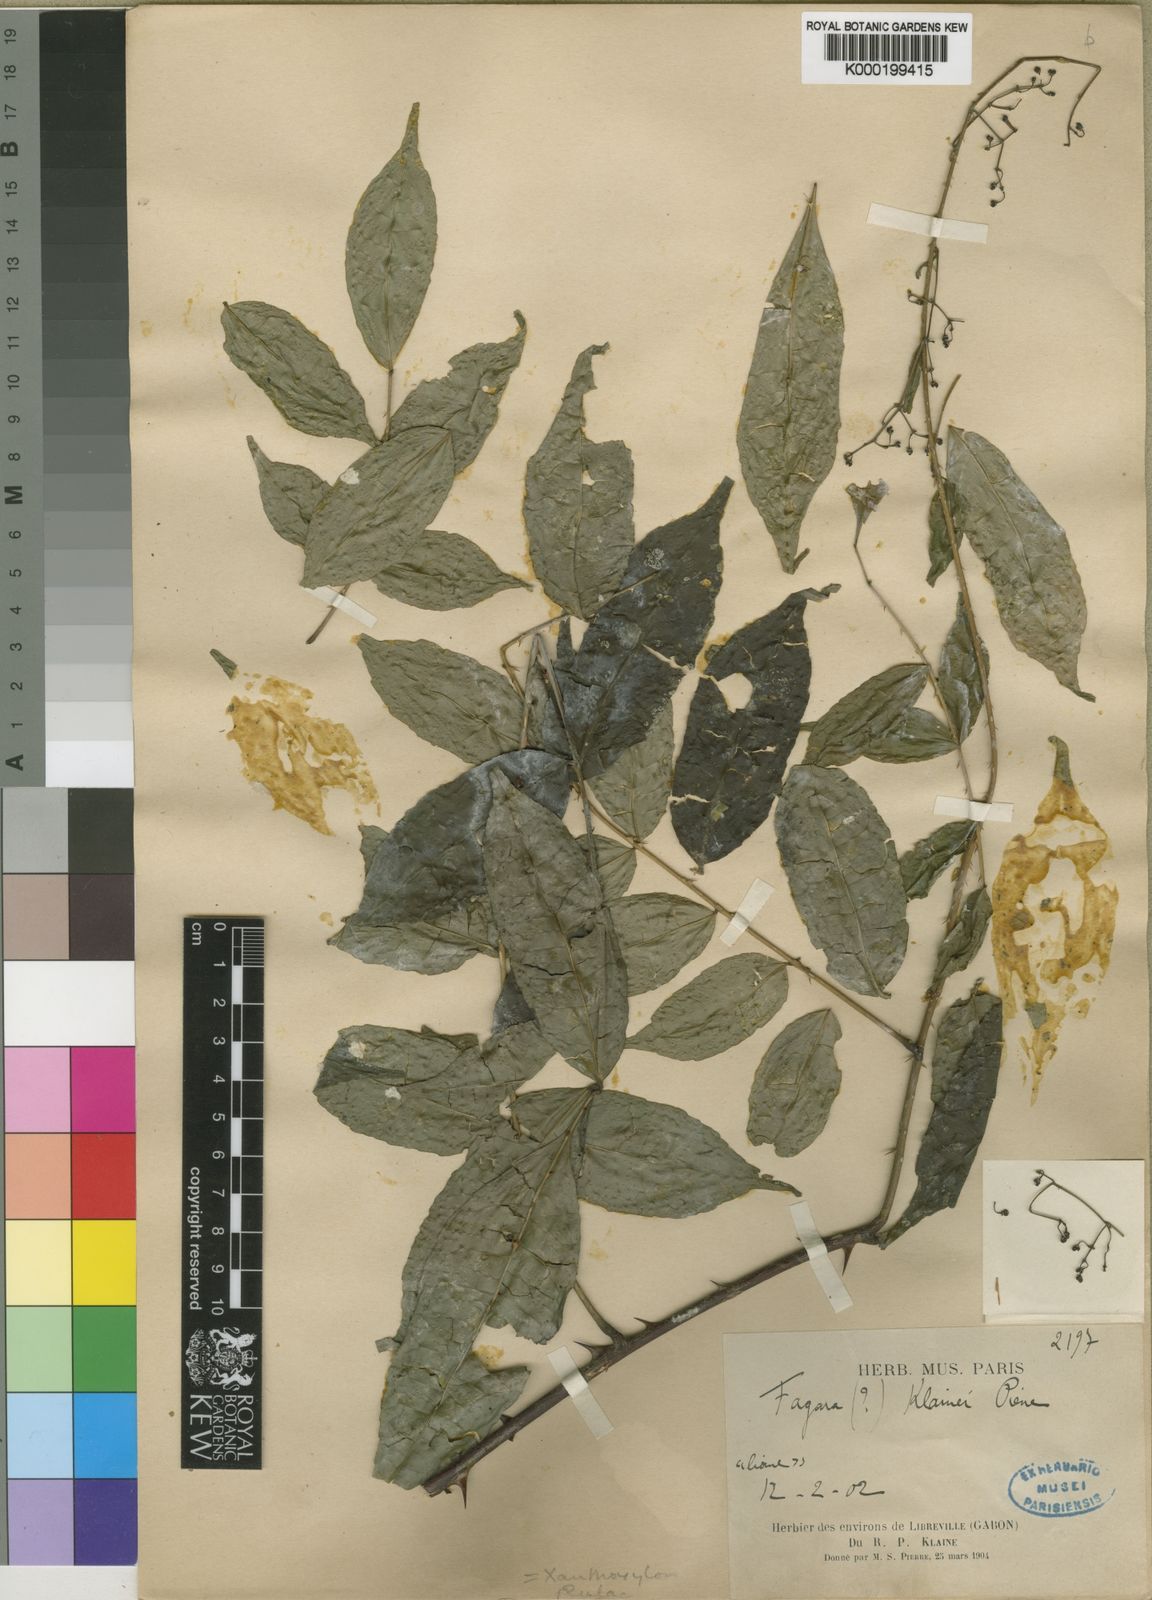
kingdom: Plantae
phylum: Tracheophyta
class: Magnoliopsida
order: Sapindales
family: Rutaceae
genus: Zanthoxylum
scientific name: Zanthoxylum dinklagei
